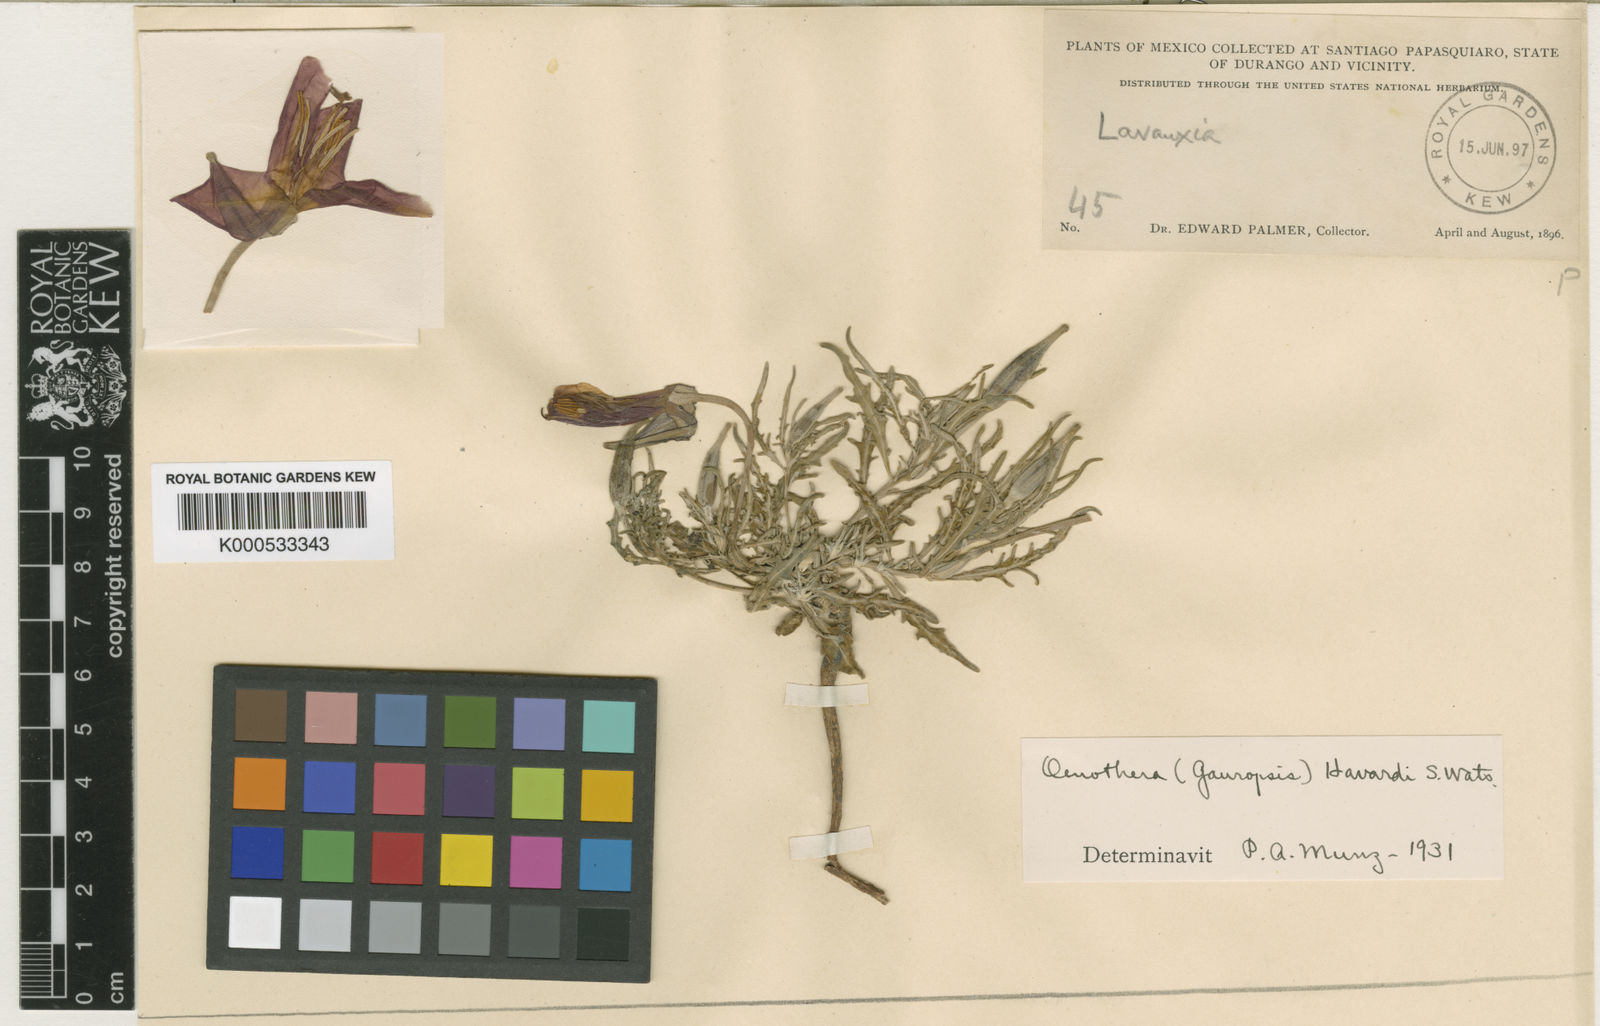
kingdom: Plantae
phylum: Tracheophyta
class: Magnoliopsida
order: Myrtales
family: Onagraceae
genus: Oenothera
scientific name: Oenothera havardii
